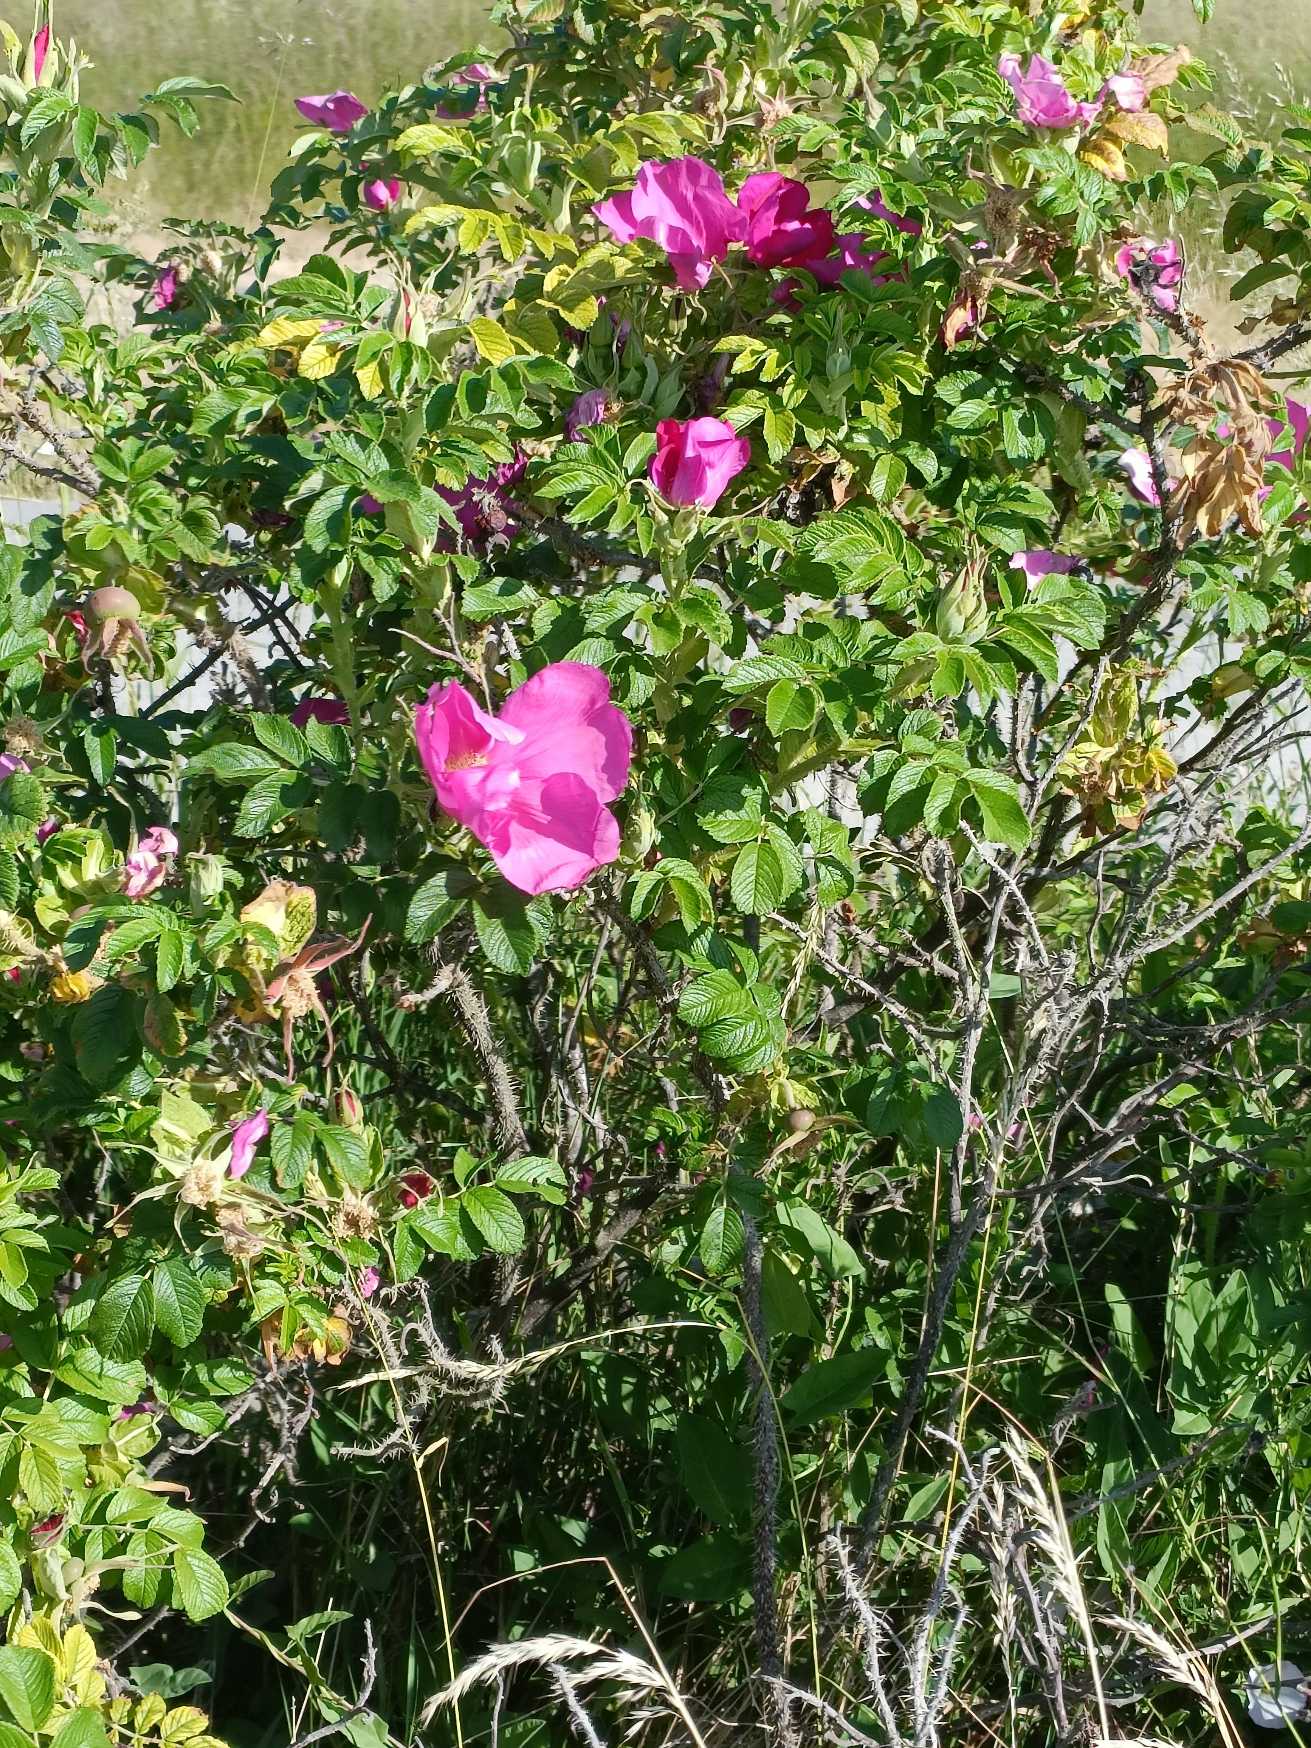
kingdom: Plantae
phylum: Tracheophyta
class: Magnoliopsida
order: Rosales
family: Rosaceae
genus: Rosa
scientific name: Rosa rugosa
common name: Rynket rose
